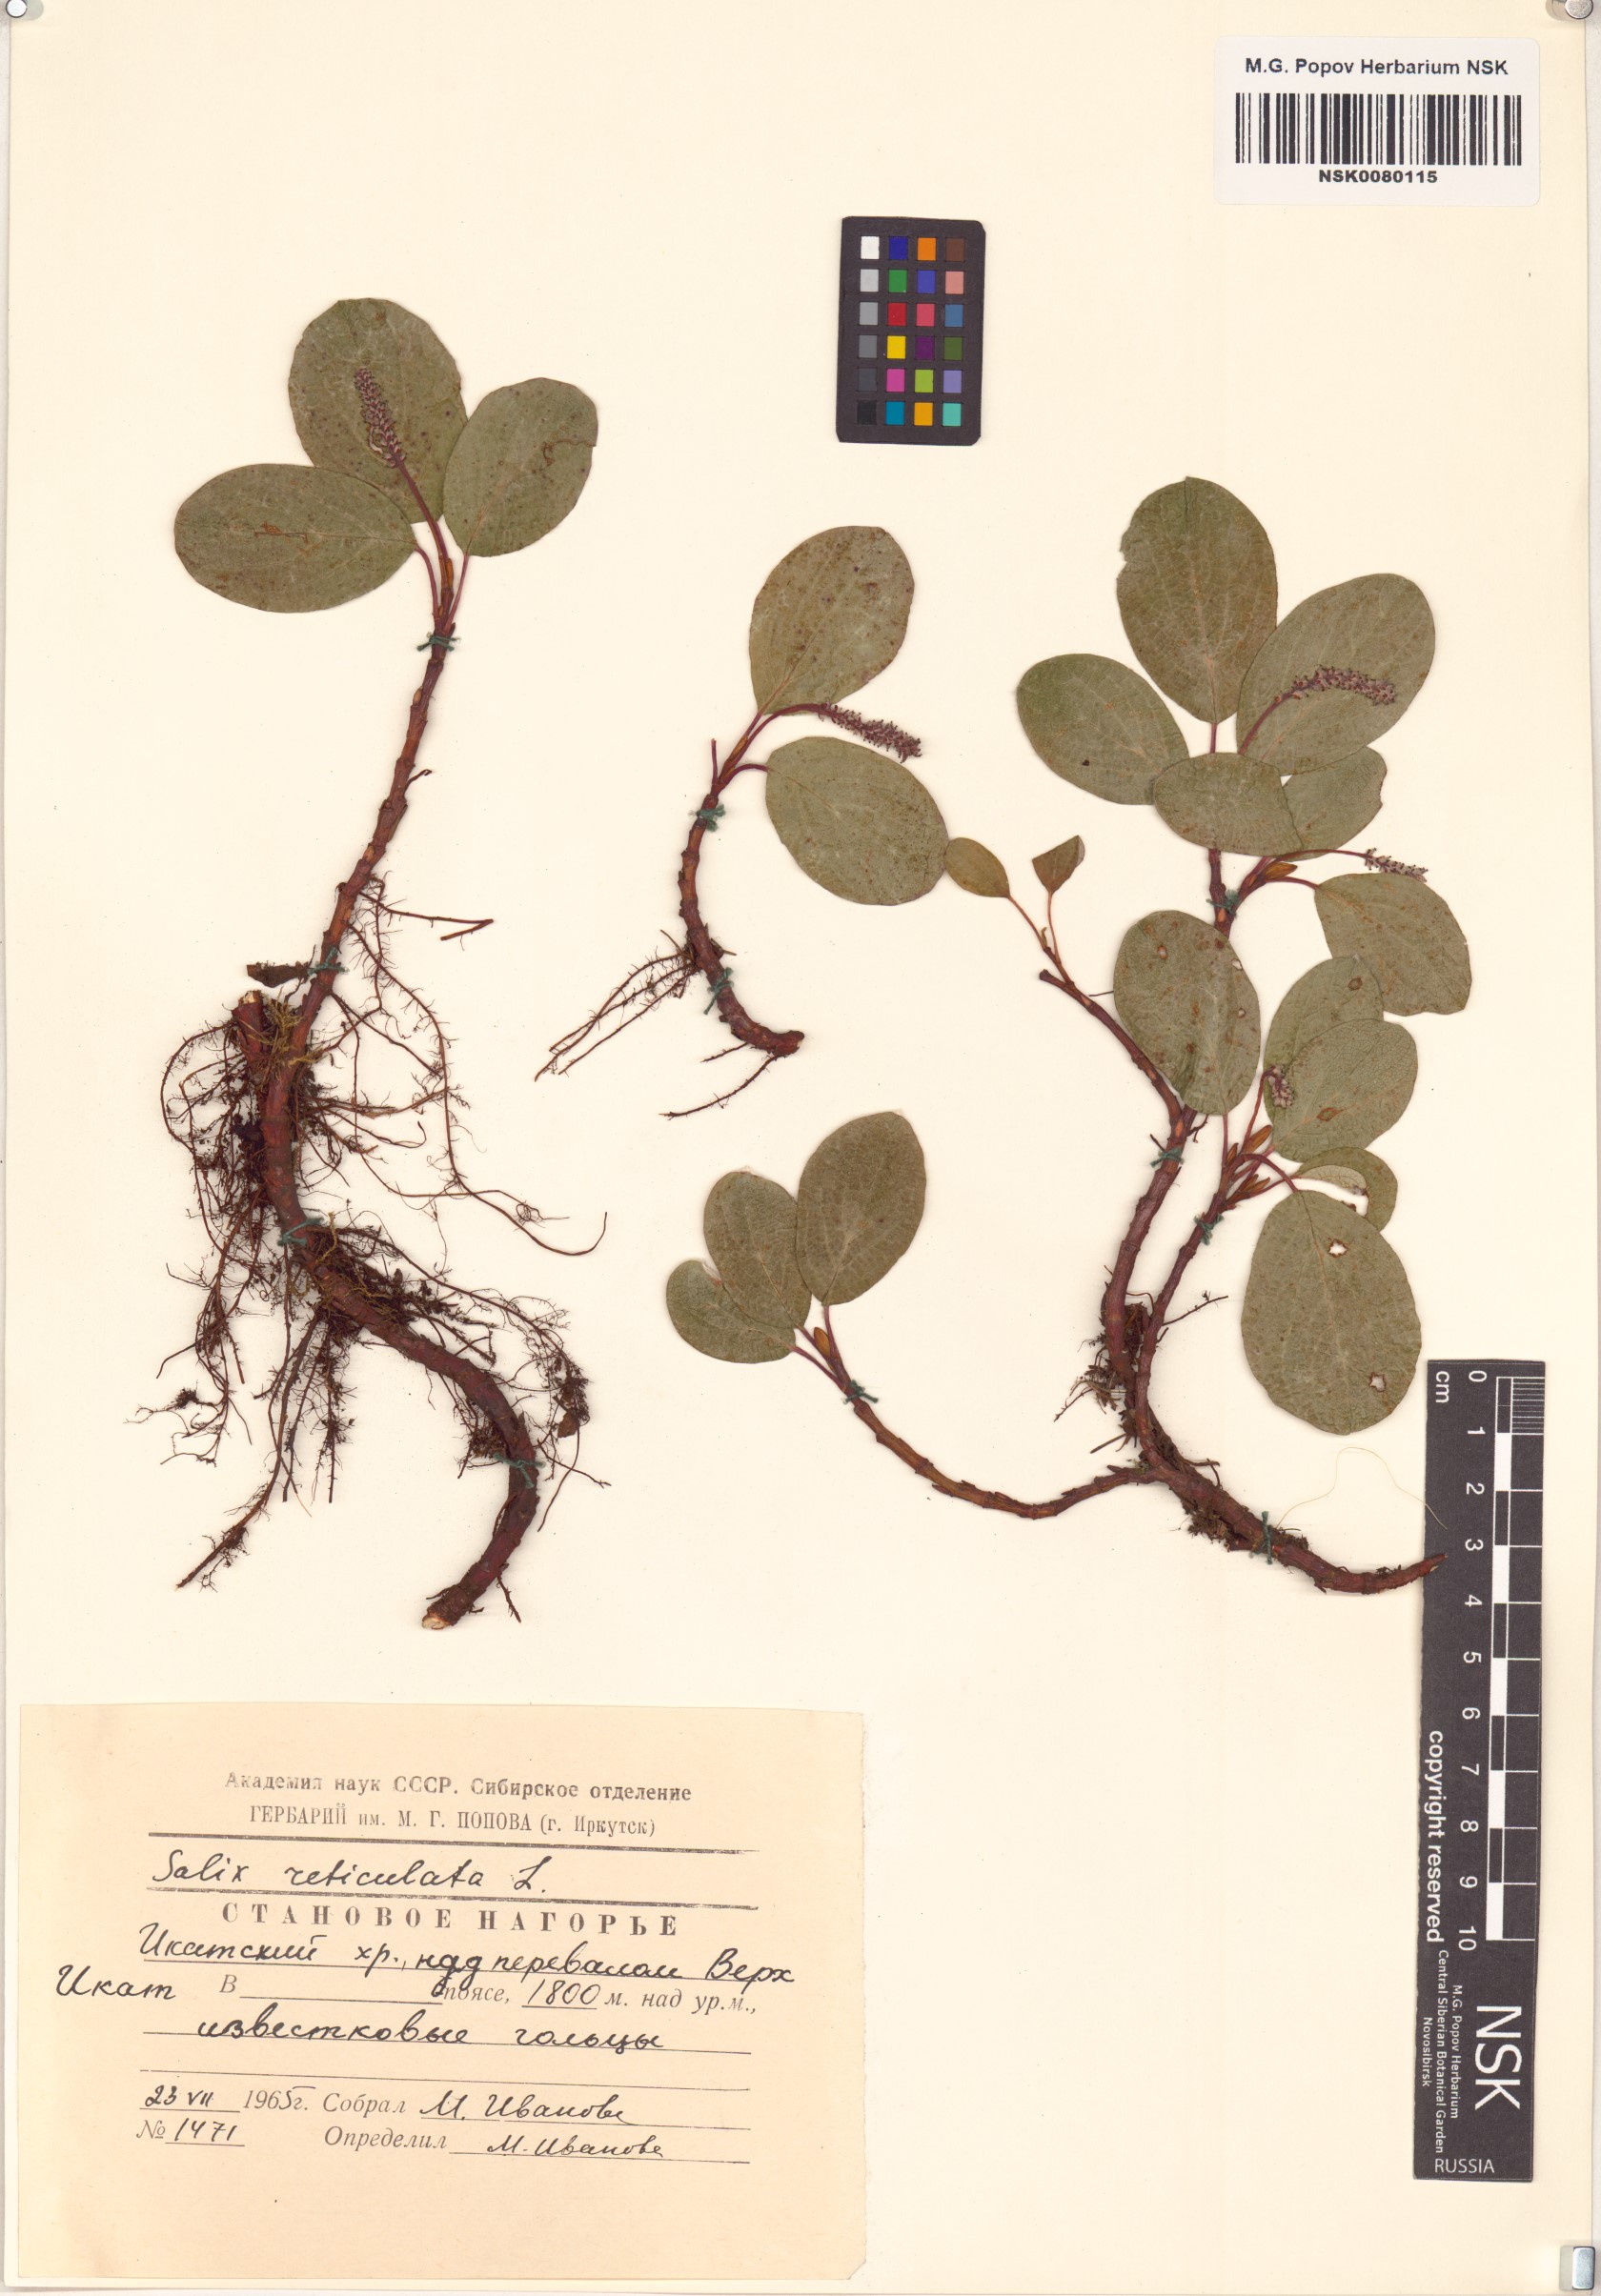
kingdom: Plantae
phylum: Tracheophyta
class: Magnoliopsida
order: Malpighiales
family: Salicaceae
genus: Salix
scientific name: Salix reticulata
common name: Net-leaved willow
